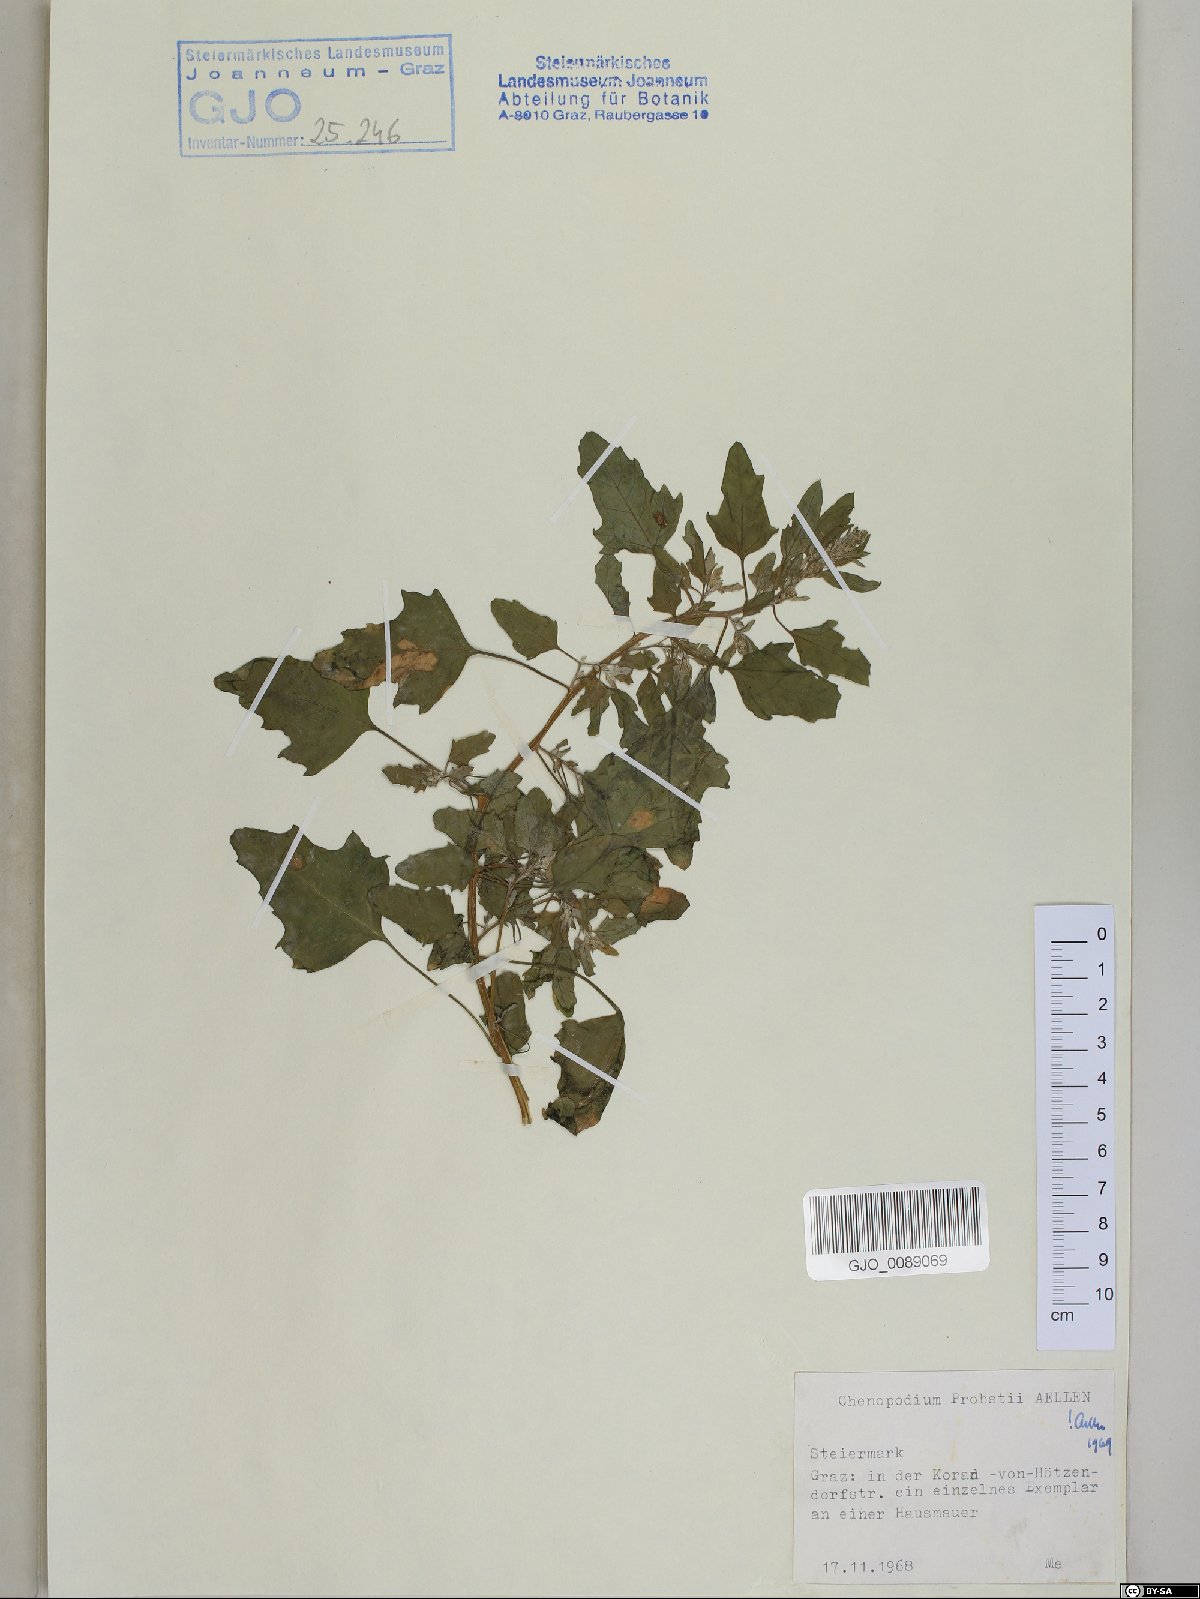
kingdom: Plantae
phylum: Tracheophyta
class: Magnoliopsida
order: Caryophyllales
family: Amaranthaceae
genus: Chenopodium
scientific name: Chenopodium probstii
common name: Probst's goosefoot
